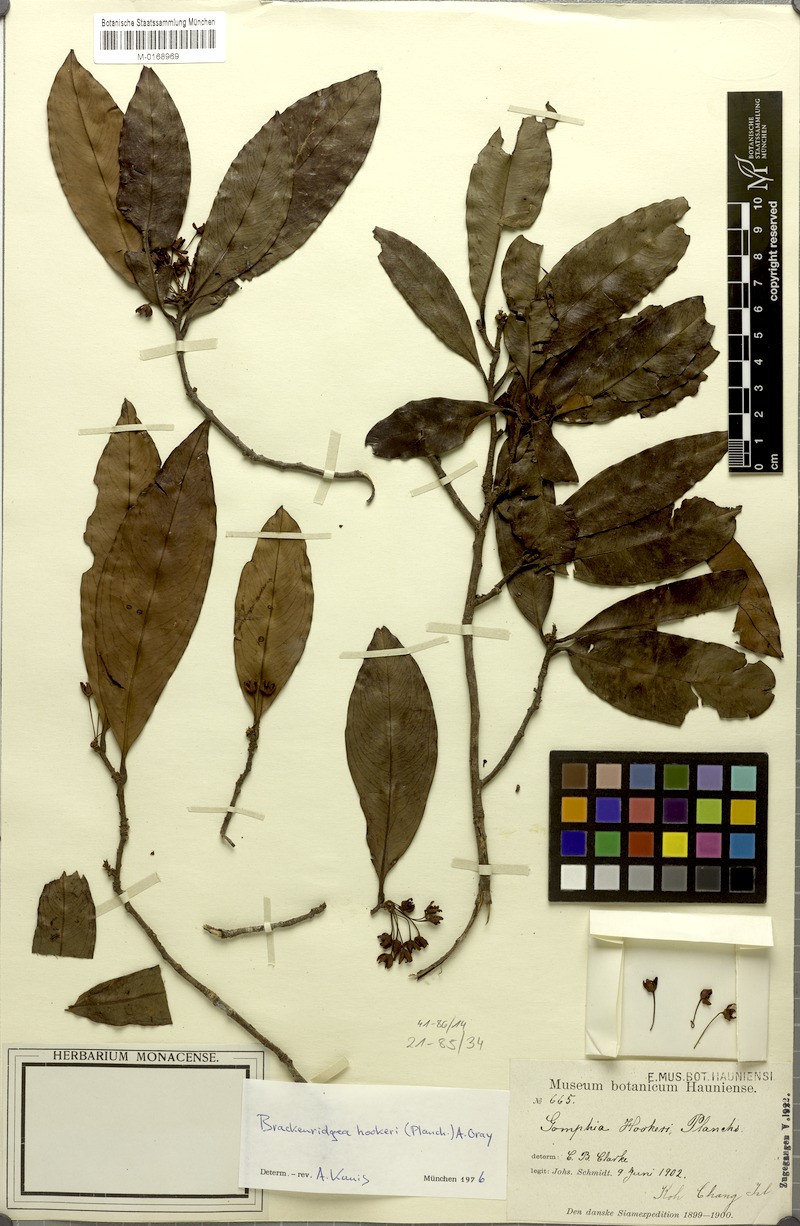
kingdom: Plantae
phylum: Tracheophyta
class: Magnoliopsida
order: Malpighiales
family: Ochnaceae
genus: Brackenridgea
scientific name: Brackenridgea elegantissima
